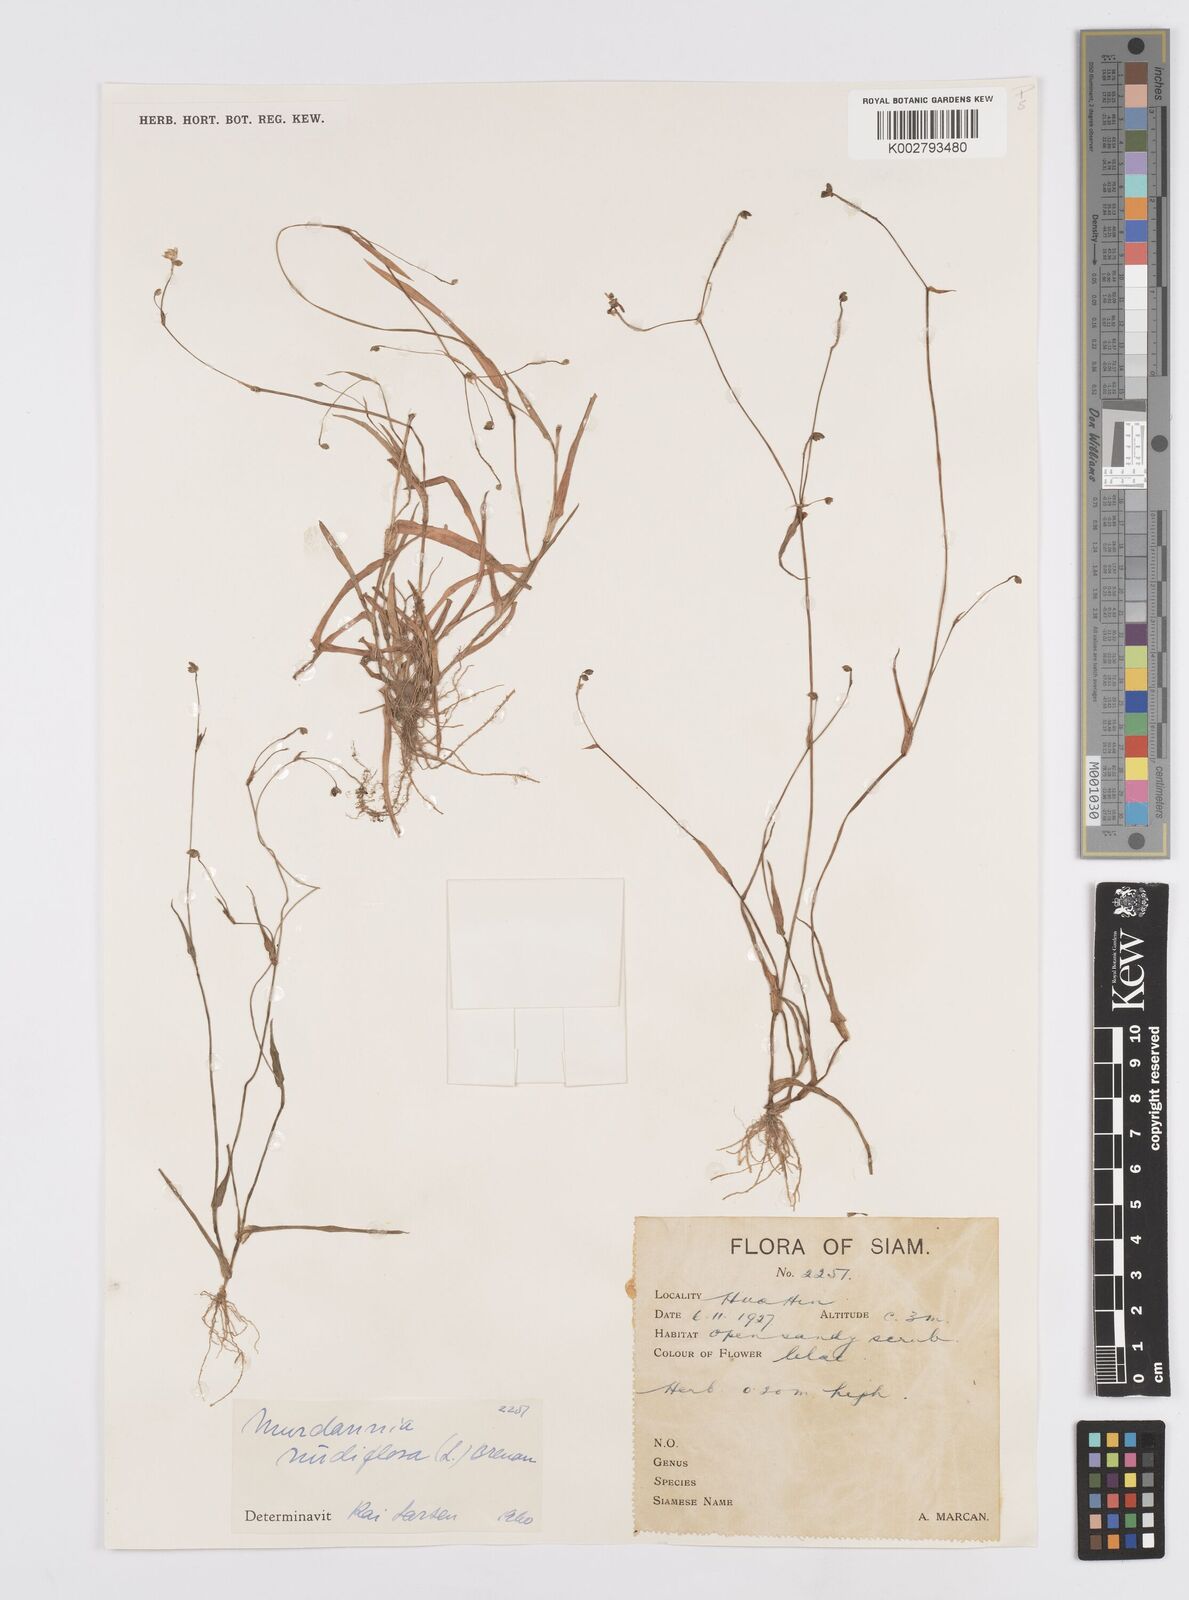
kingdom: Plantae
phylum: Tracheophyta
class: Liliopsida
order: Commelinales
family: Commelinaceae
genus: Murdannia
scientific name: Murdannia nudiflora
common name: Nakedstem dewflower
